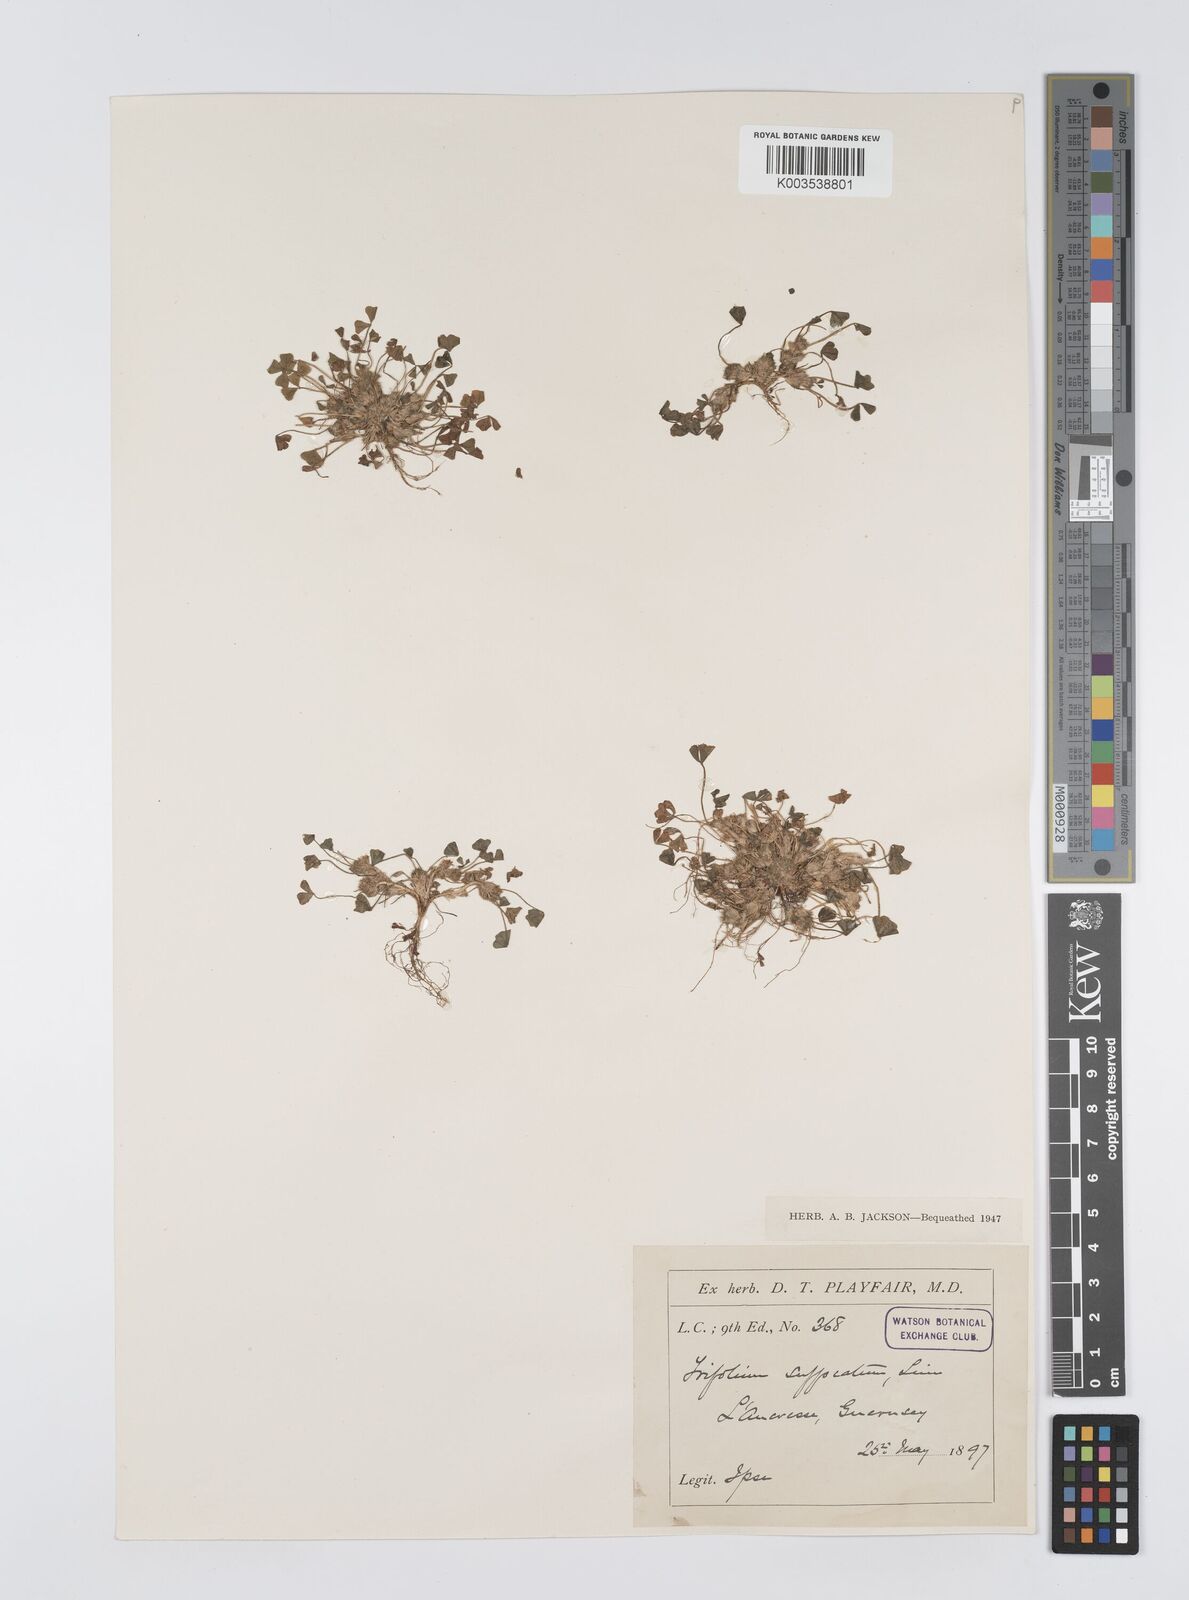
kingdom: Plantae
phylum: Tracheophyta
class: Magnoliopsida
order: Fabales
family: Fabaceae
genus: Trifolium
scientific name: Trifolium suffocatum
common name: Suffocated clover
